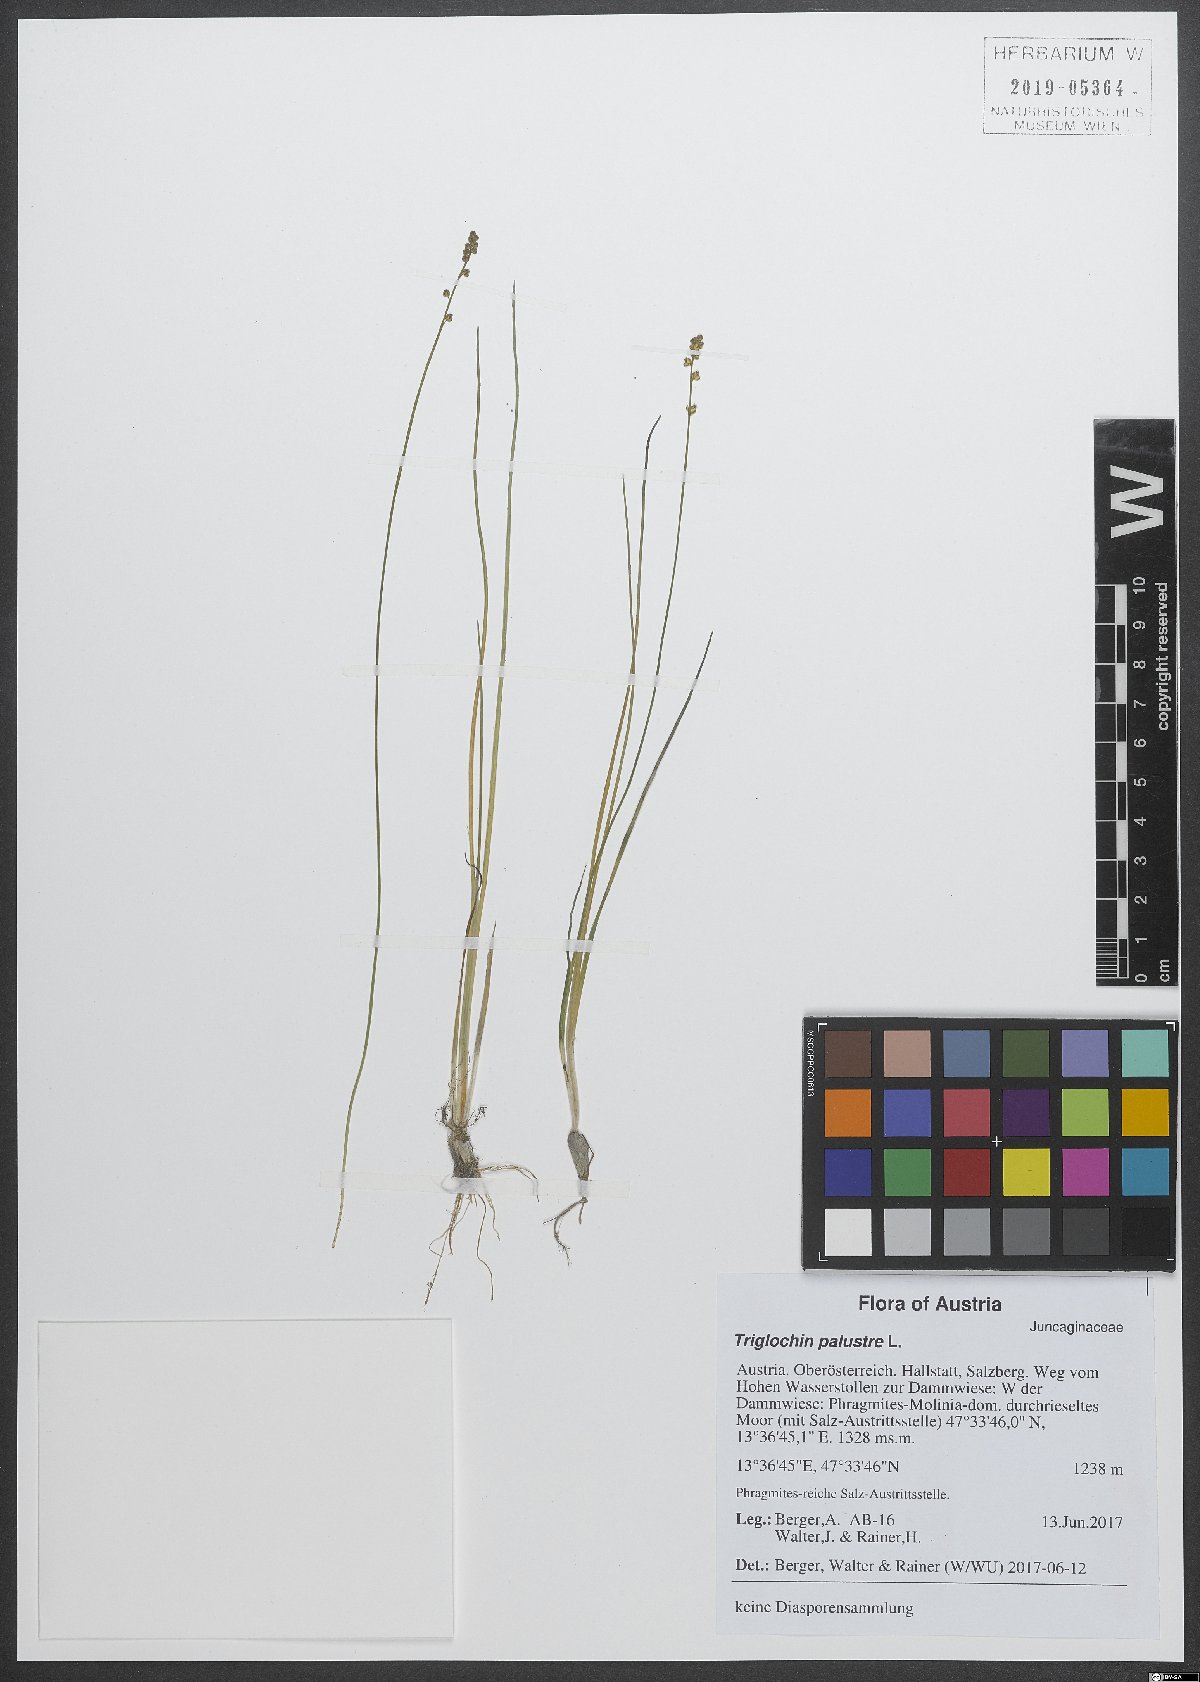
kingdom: Plantae
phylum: Tracheophyta
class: Liliopsida
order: Alismatales
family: Juncaginaceae
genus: Triglochin
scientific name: Triglochin palustris
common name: Marsh arrowgrass
